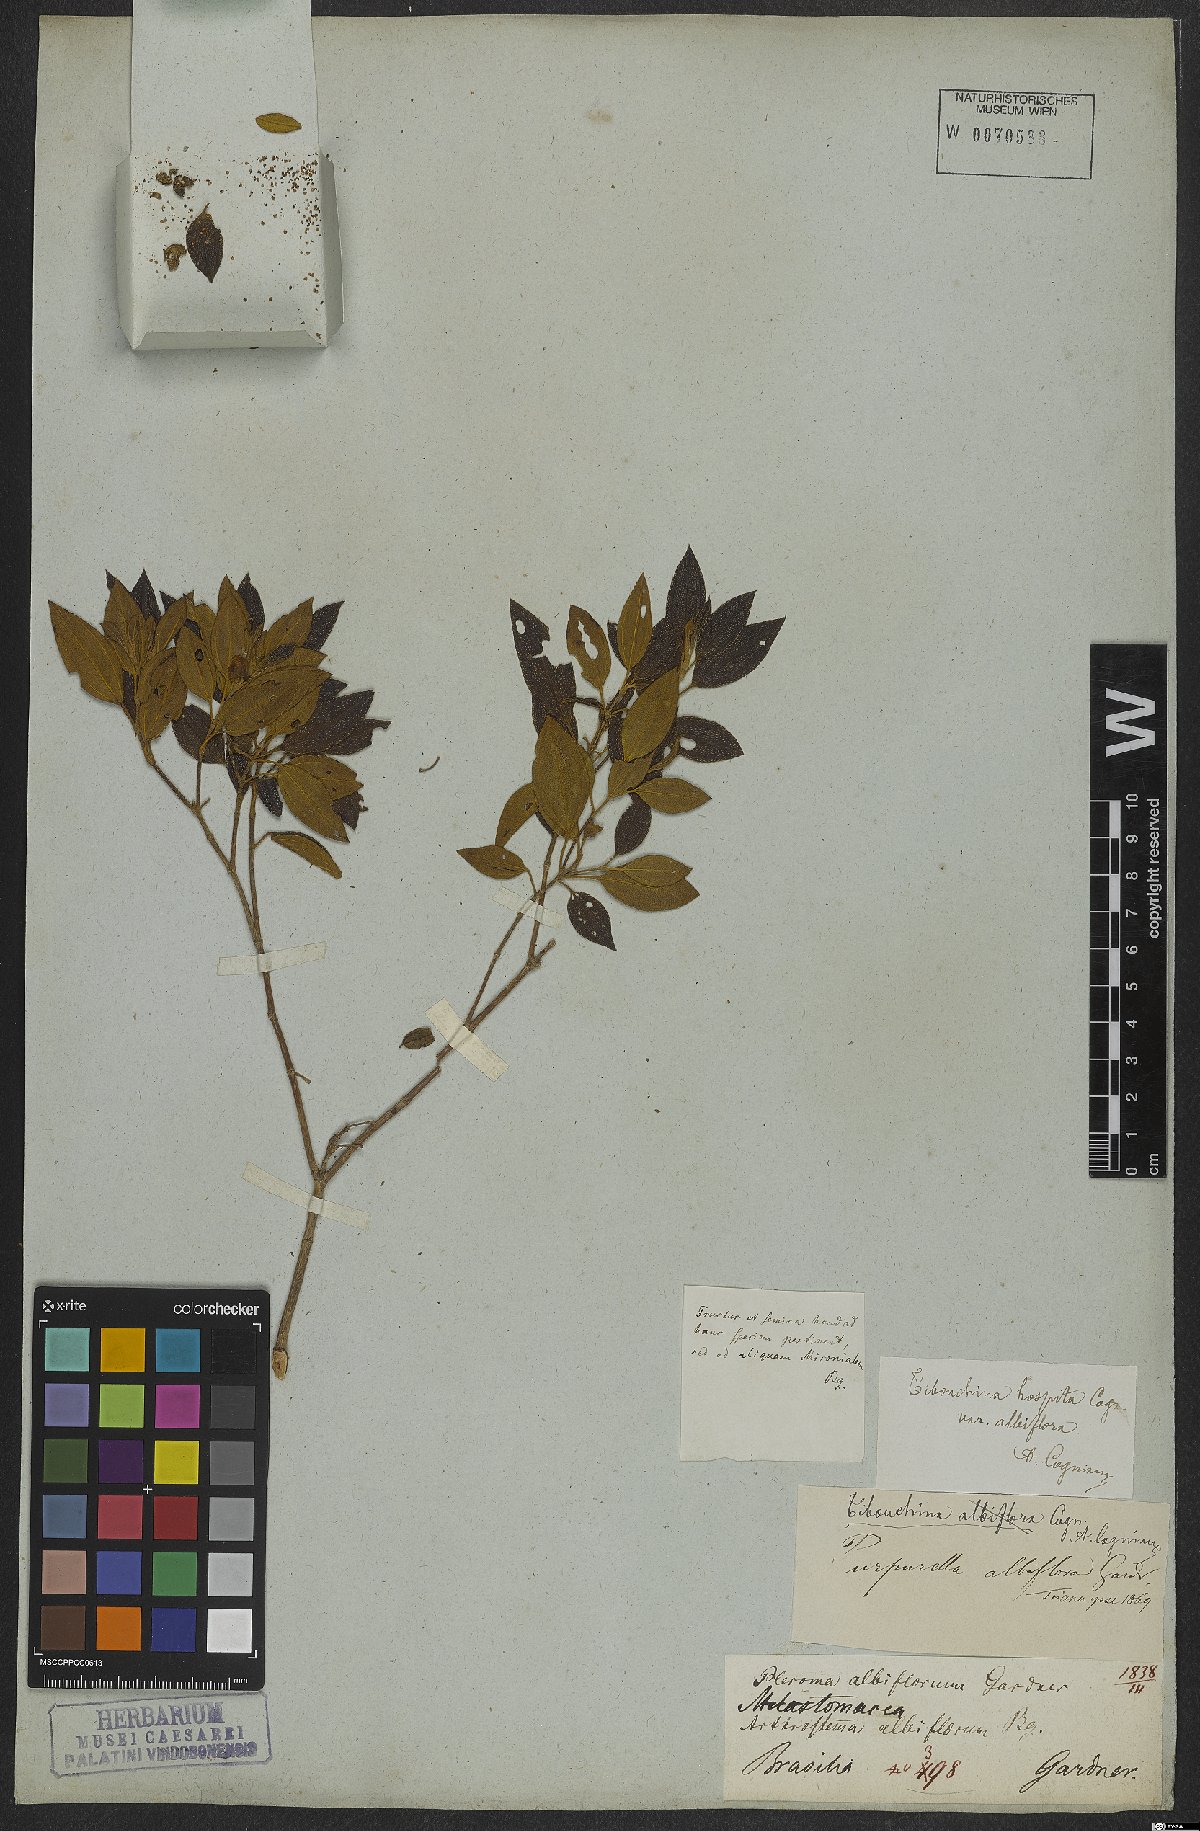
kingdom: Plantae
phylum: Tracheophyta
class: Magnoliopsida
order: Myrtales
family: Melastomataceae
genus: Pleroma
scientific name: Pleroma hospitum
